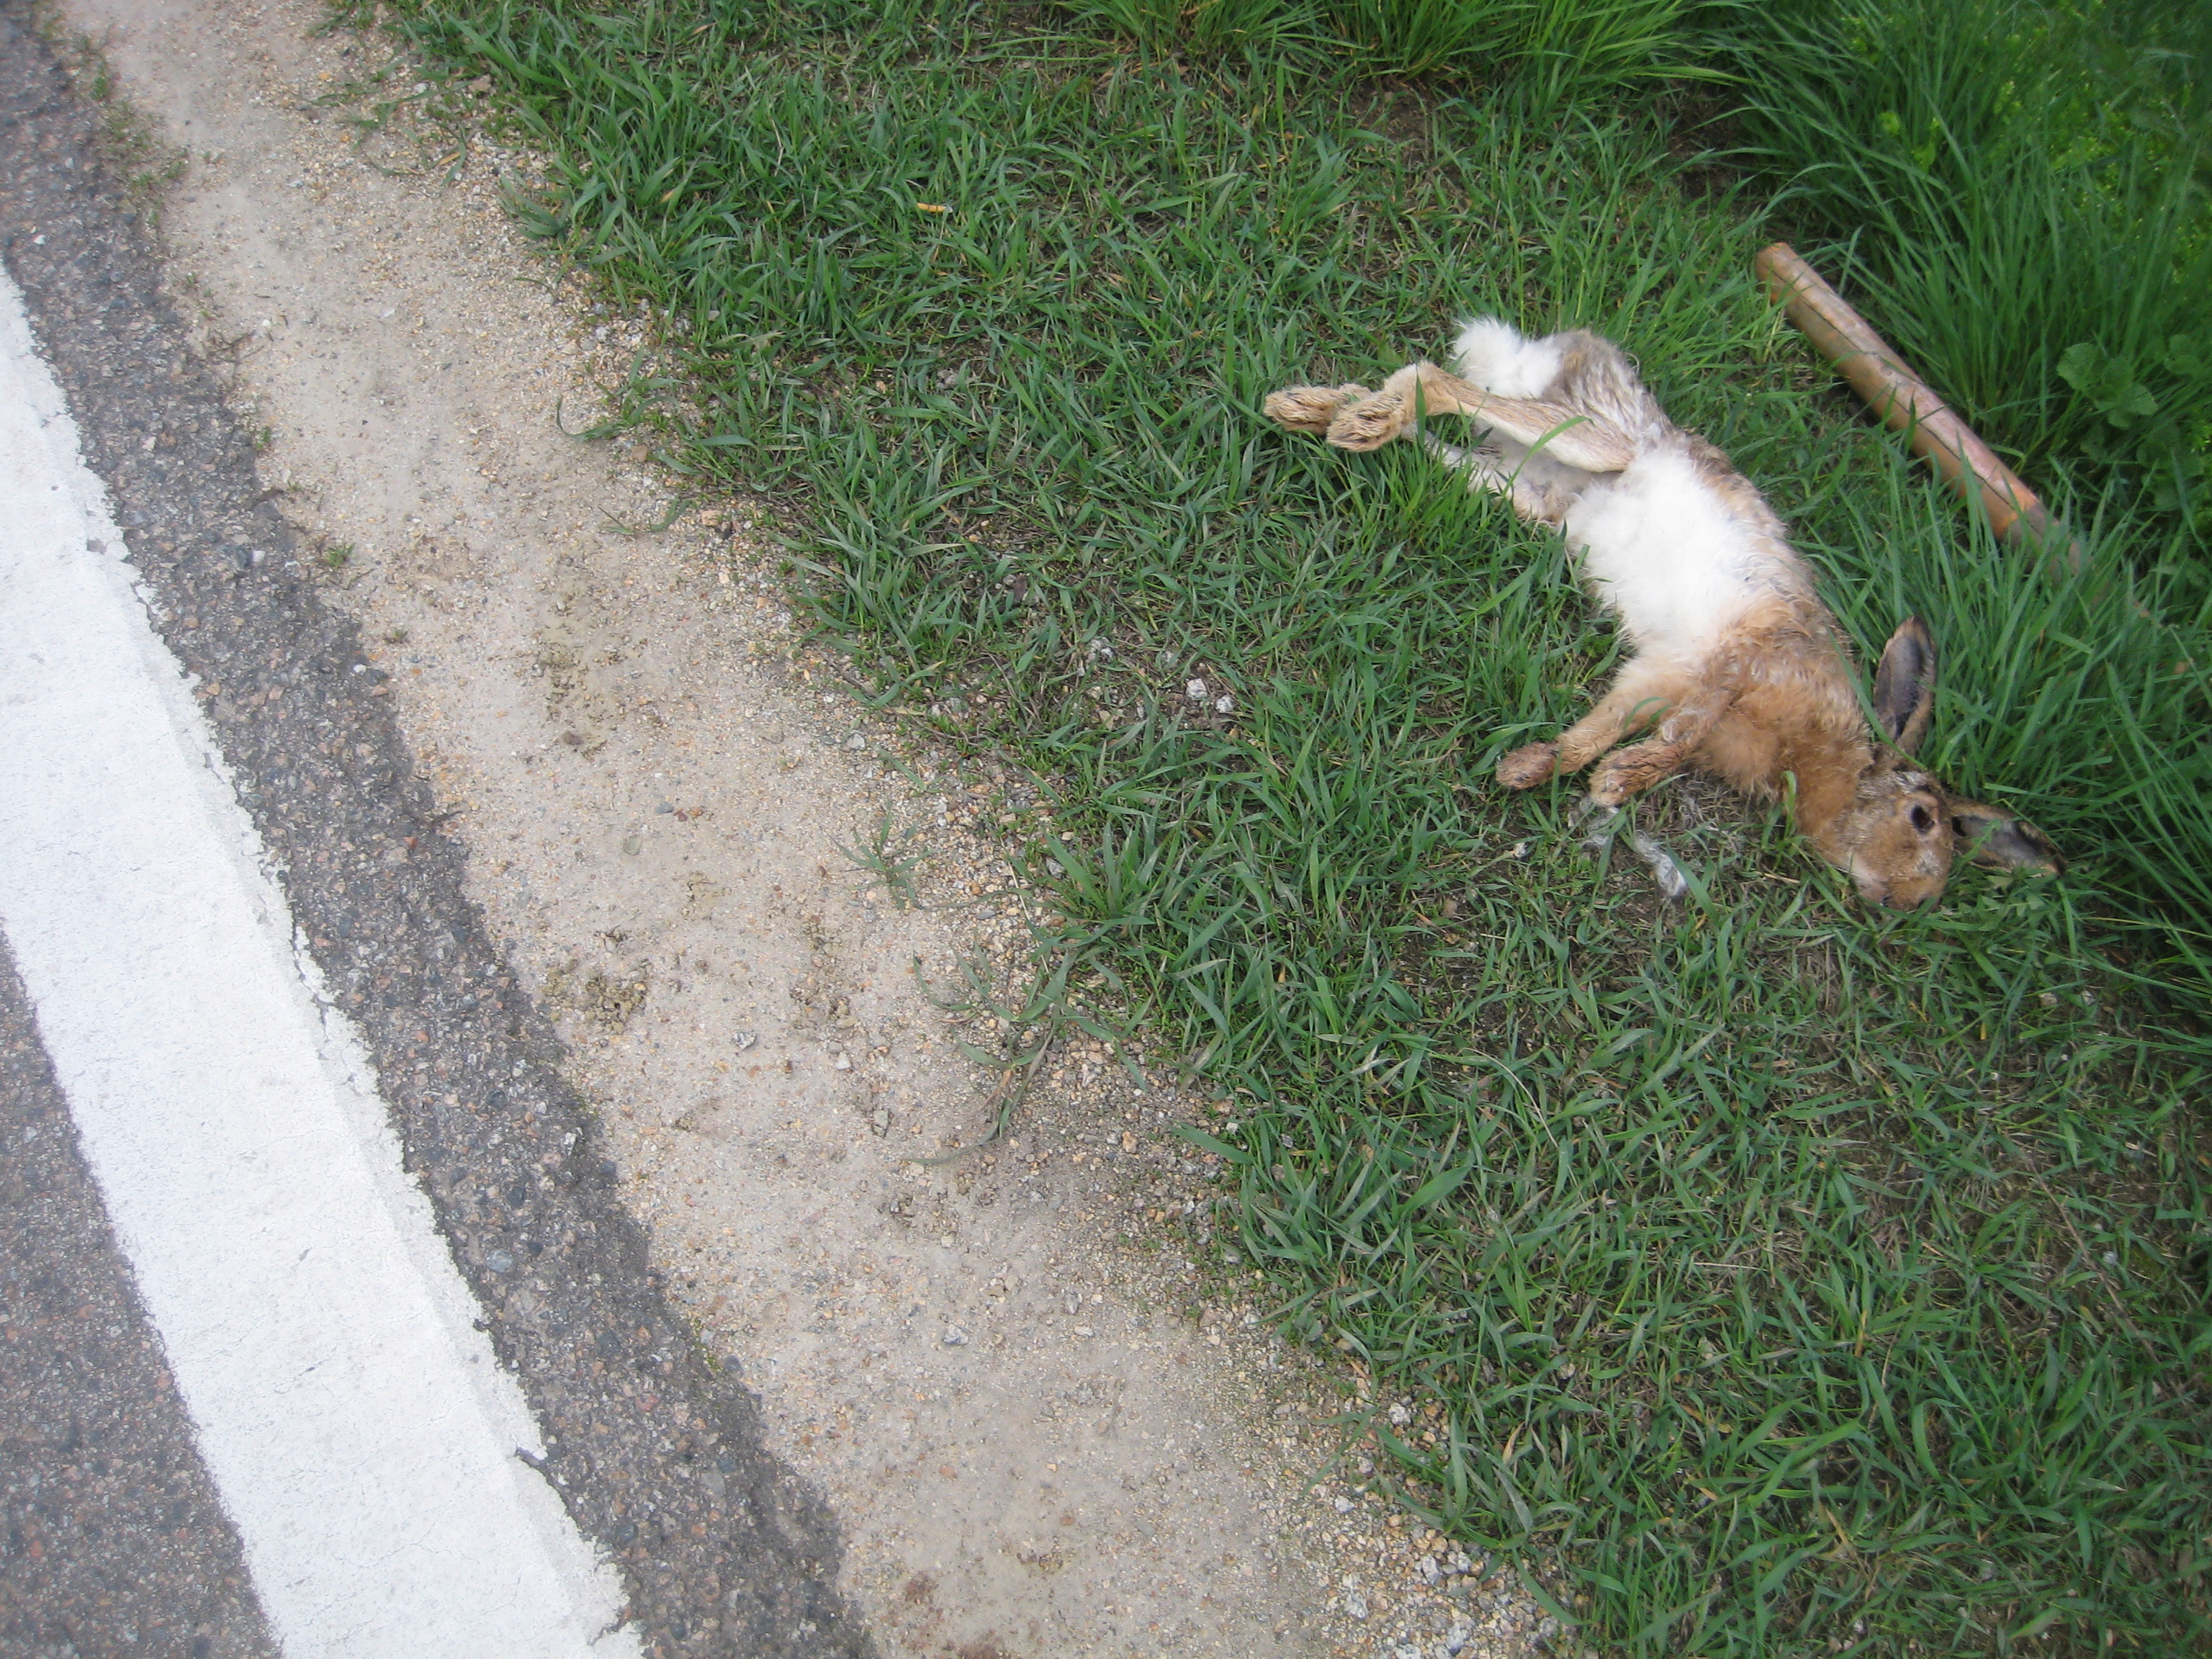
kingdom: Animalia
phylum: Chordata
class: Mammalia
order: Lagomorpha
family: Leporidae
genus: Lepus
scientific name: Lepus europaeus
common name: European hare
